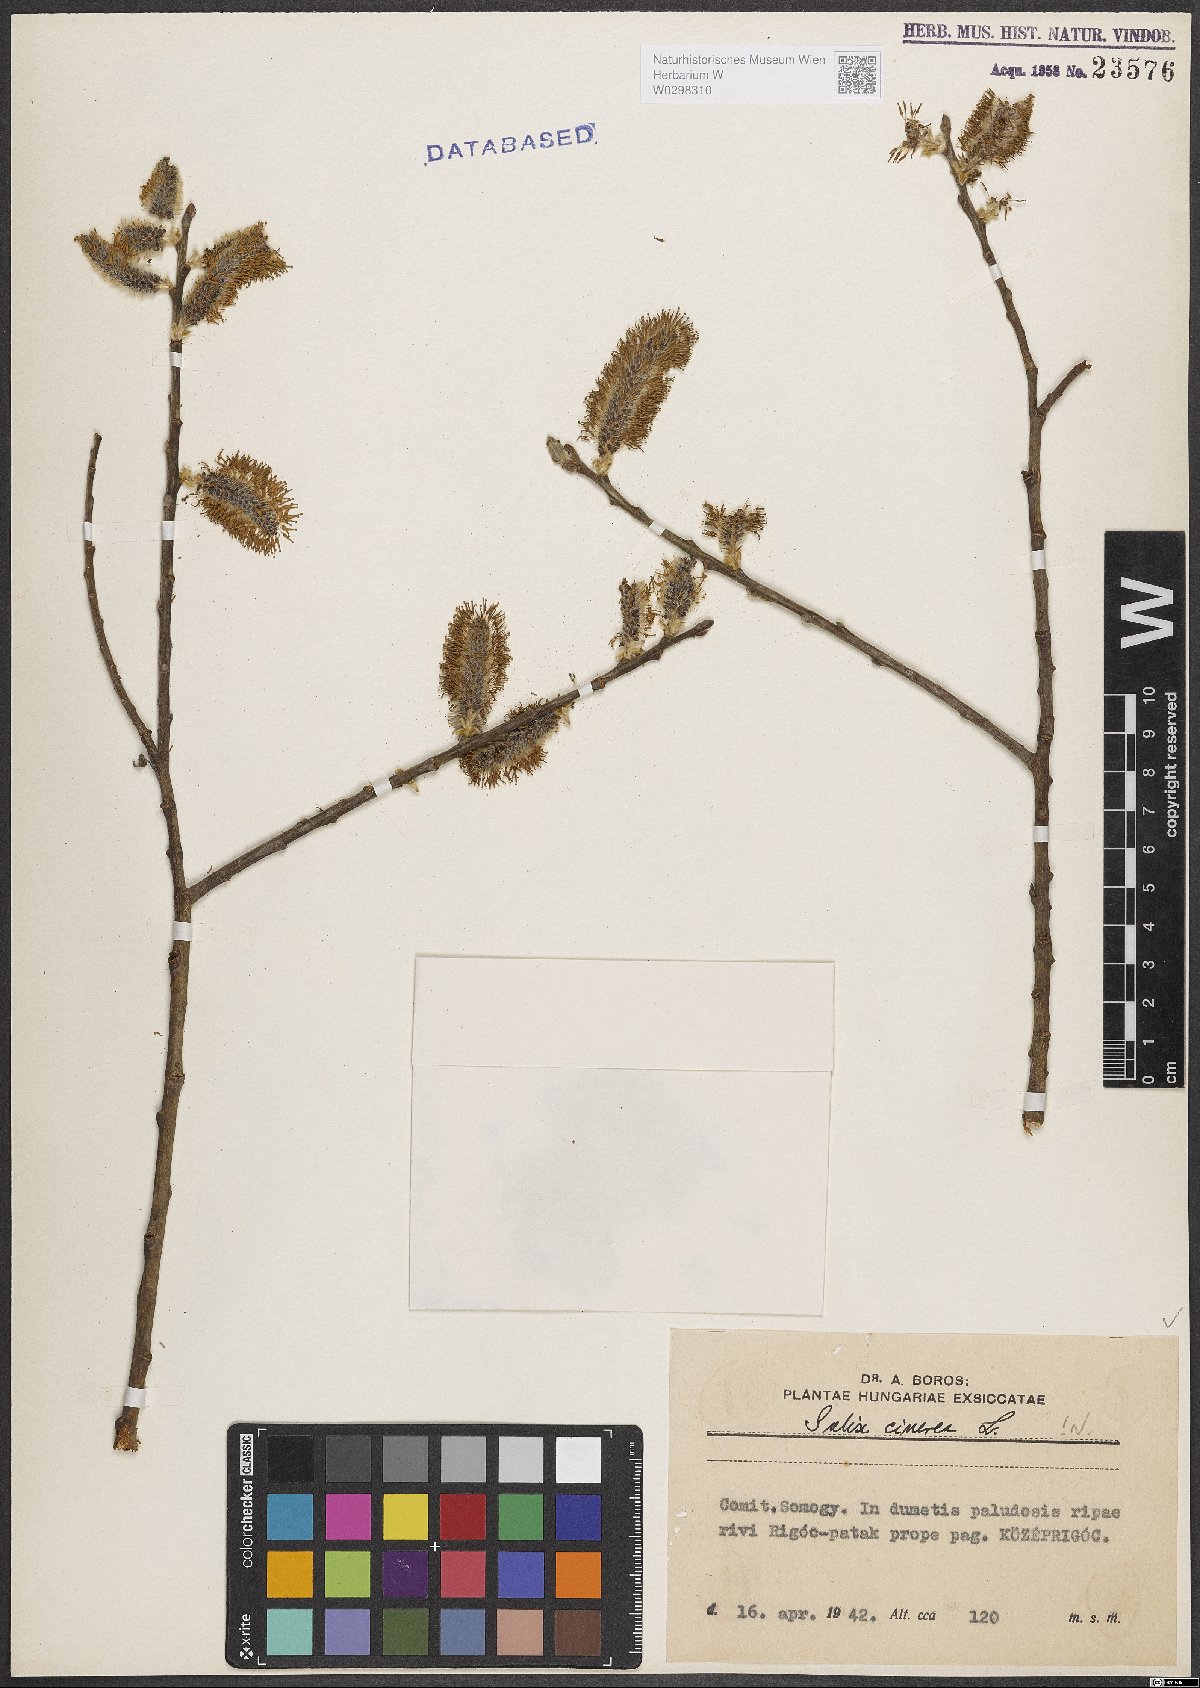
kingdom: Plantae
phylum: Tracheophyta
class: Magnoliopsida
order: Malpighiales
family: Salicaceae
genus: Salix
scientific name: Salix cinerea
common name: Common sallow
